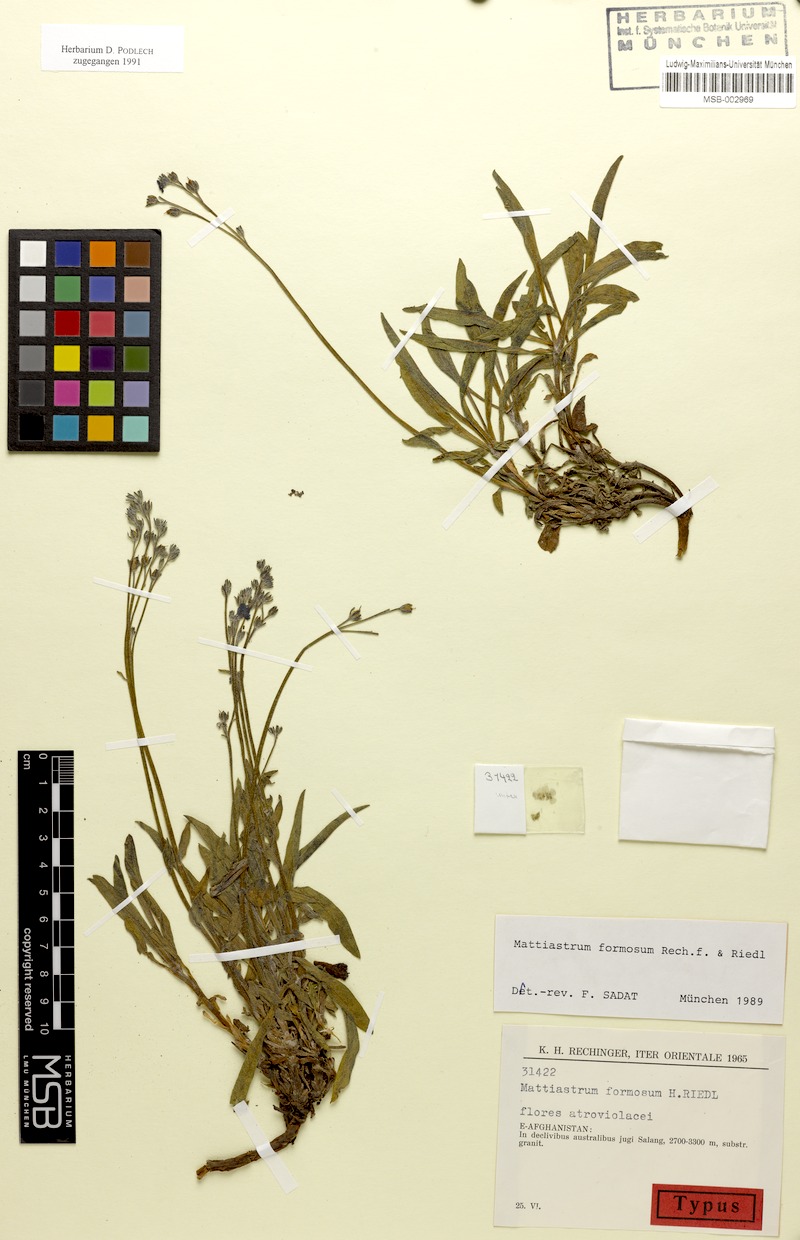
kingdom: Plantae
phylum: Tracheophyta
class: Magnoliopsida
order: Boraginales
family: Boraginaceae
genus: Paracaryum
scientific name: Paracaryum rechingeri
